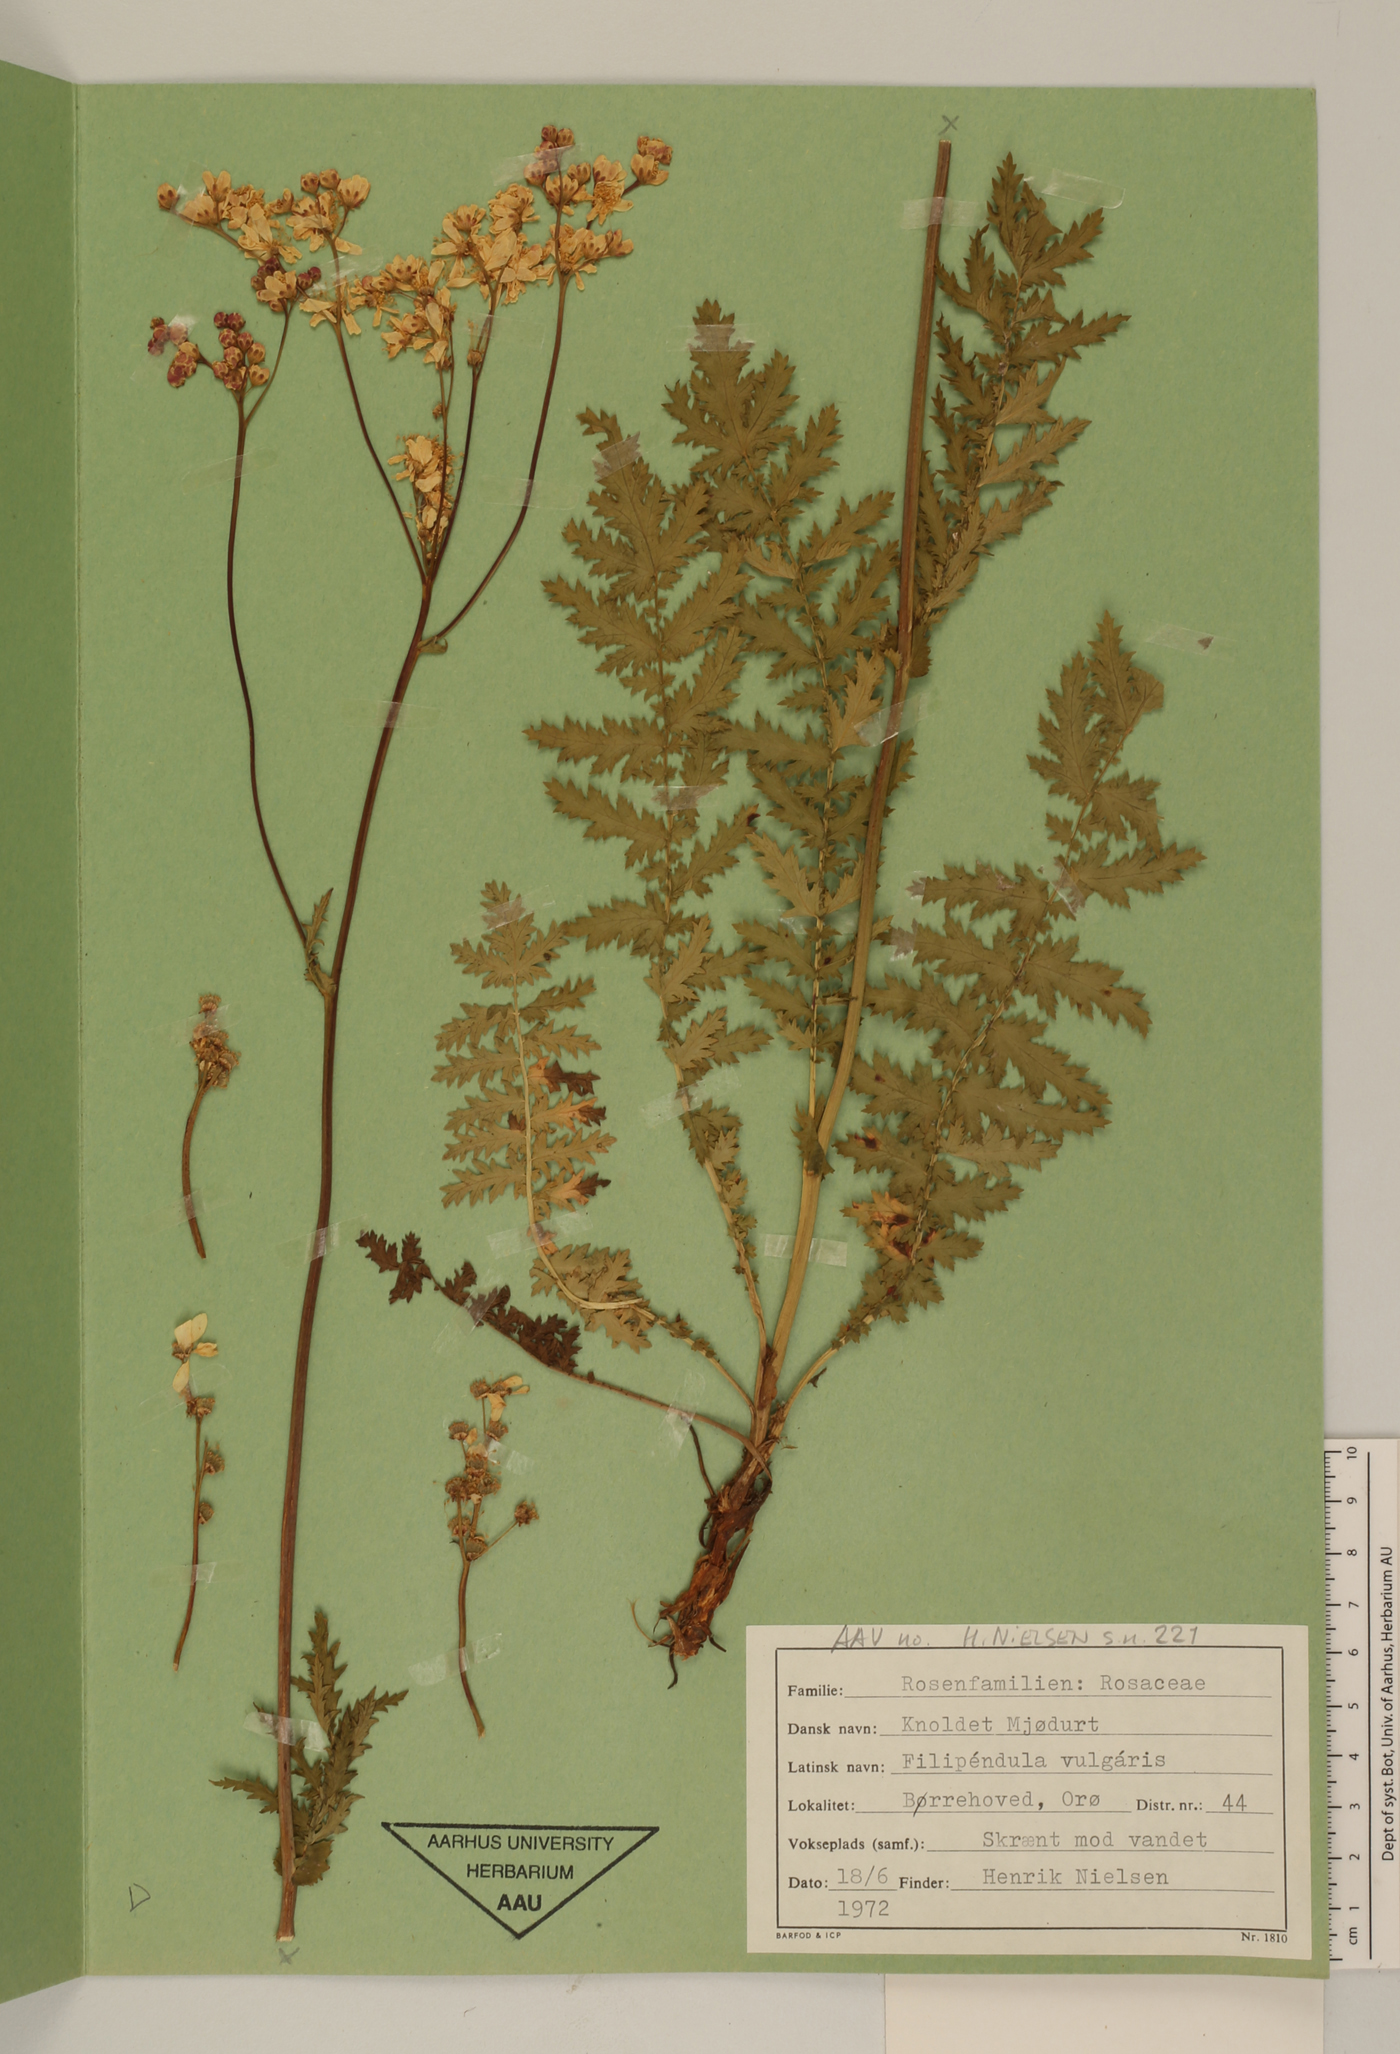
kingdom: Plantae
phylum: Tracheophyta
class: Magnoliopsida
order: Rosales
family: Rosaceae
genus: Filipendula
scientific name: Filipendula vulgaris
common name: Dropwort
